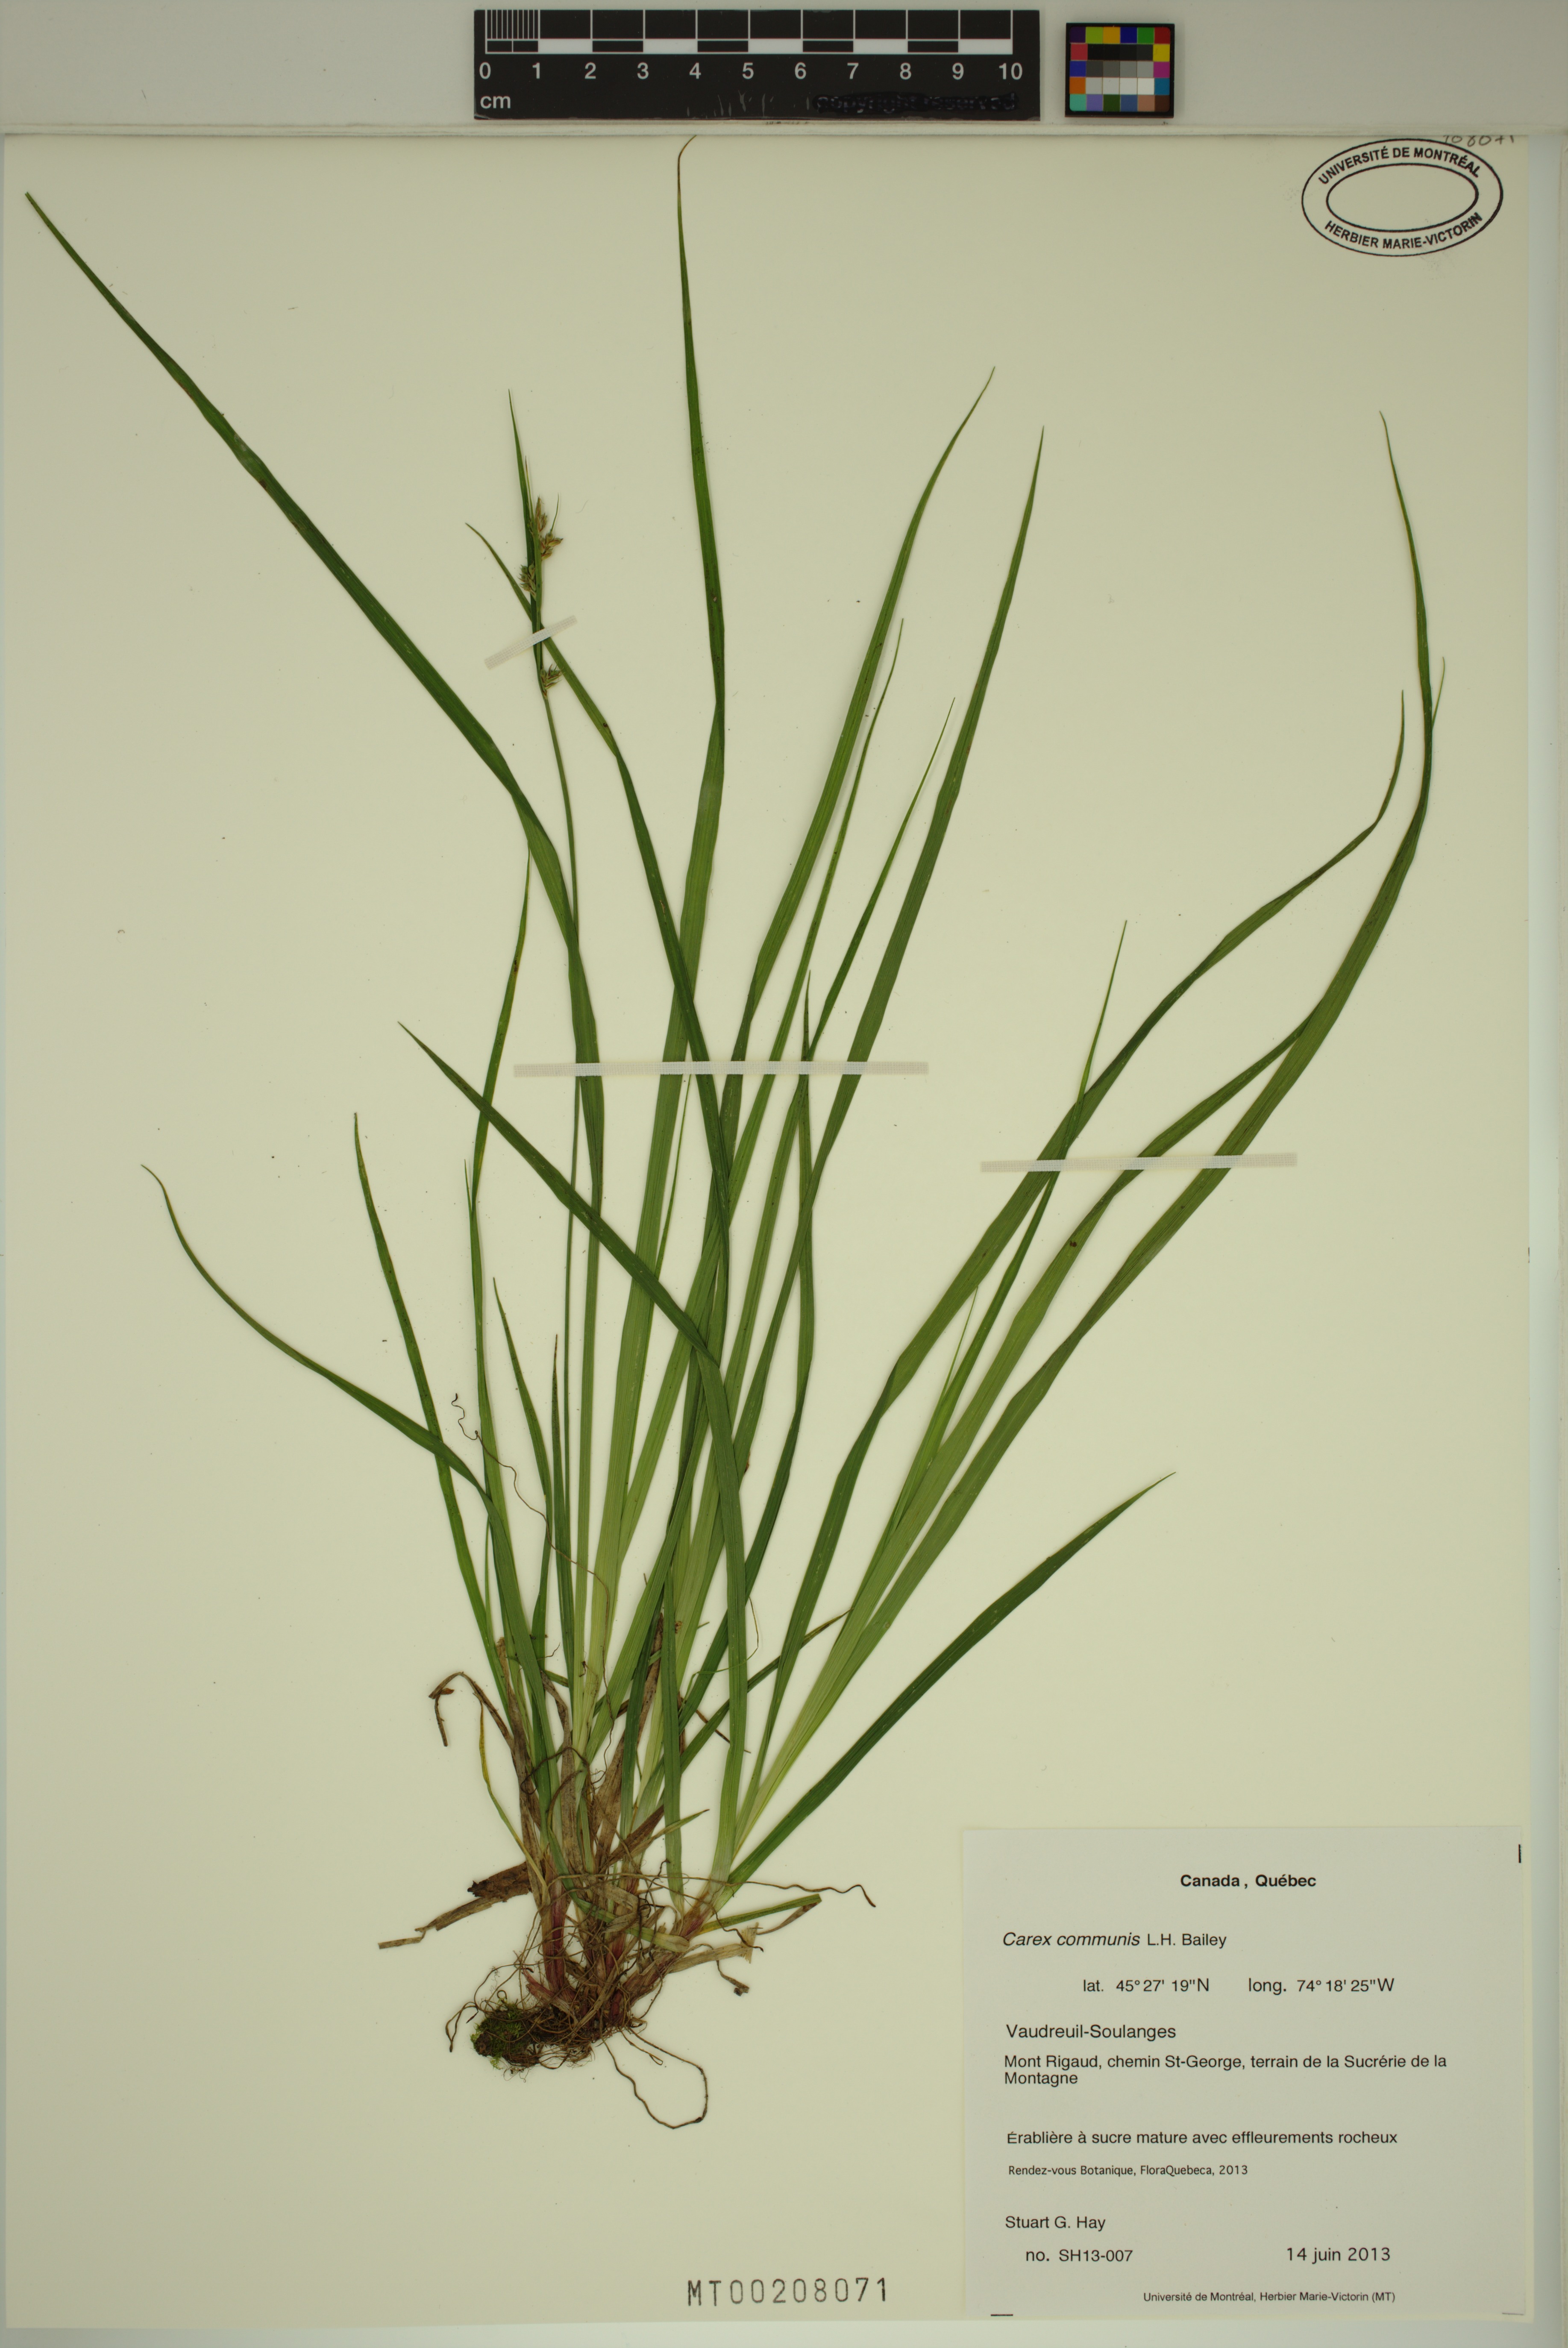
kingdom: Plantae
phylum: Tracheophyta
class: Liliopsida
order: Poales
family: Cyperaceae
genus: Carex
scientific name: Carex communis
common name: Colonial oak sedge
